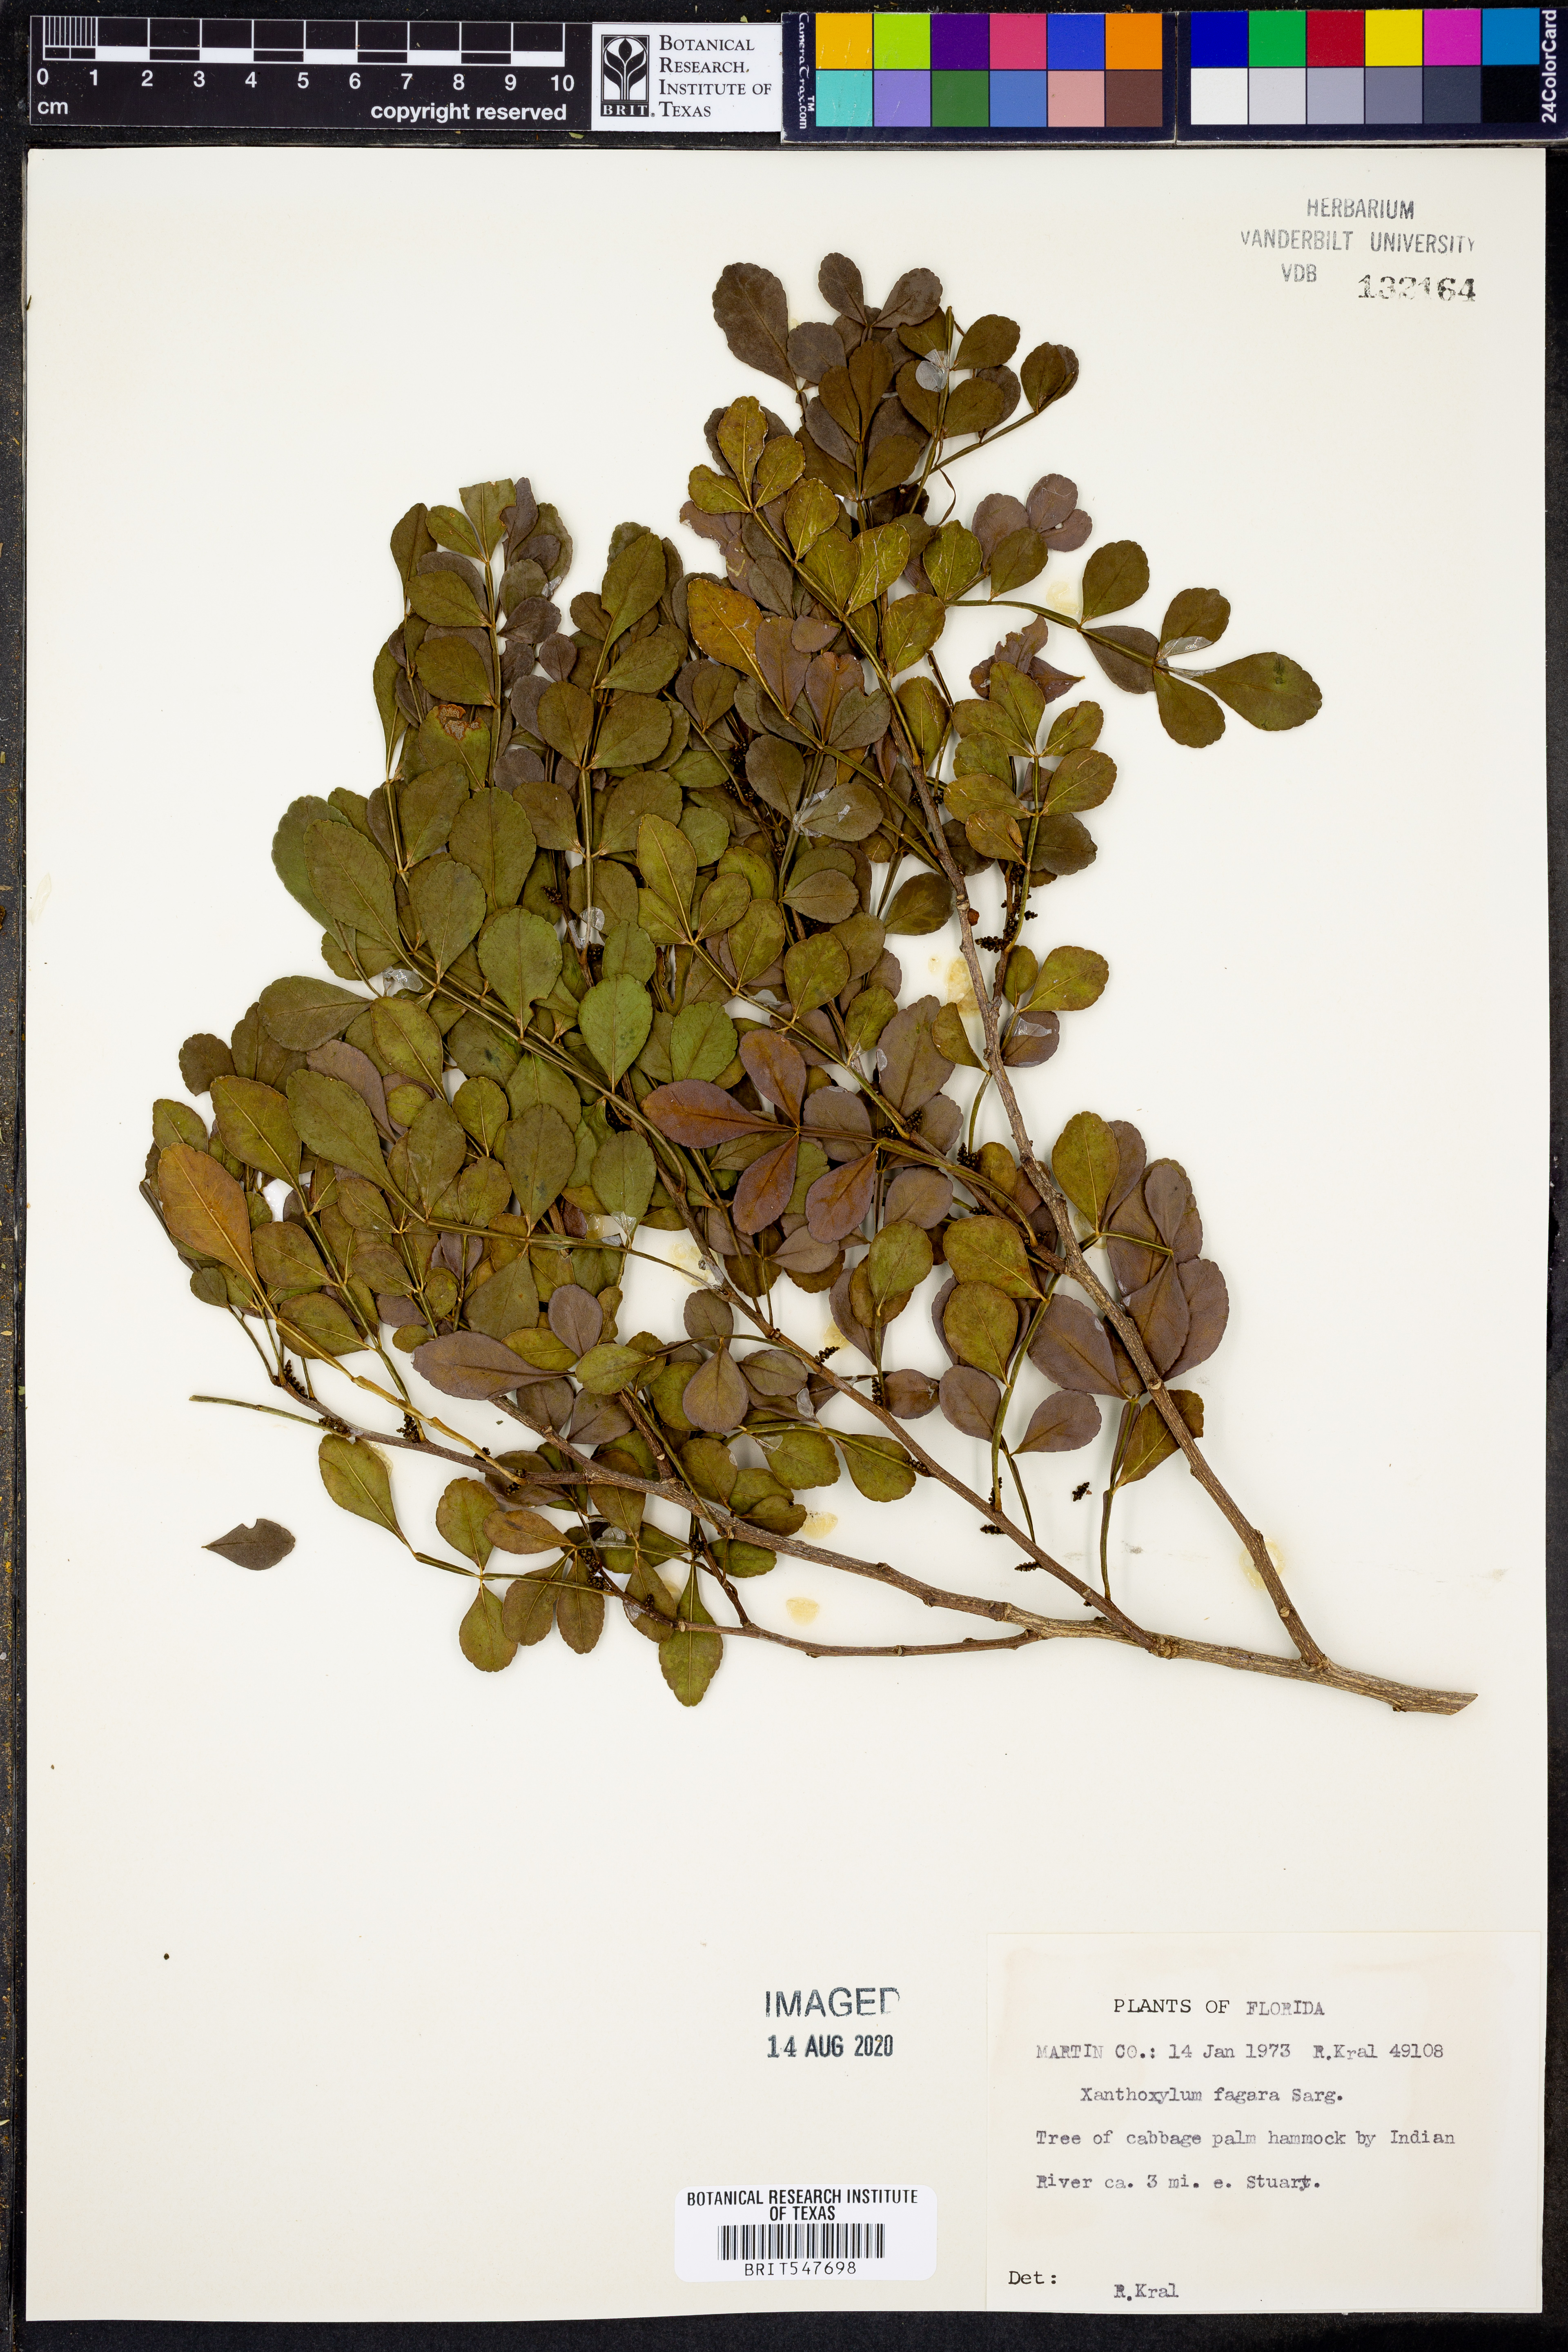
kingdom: Plantae
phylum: Tracheophyta
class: Magnoliopsida
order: Sapindales
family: Rutaceae
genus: Zanthoxylum
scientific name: Zanthoxylum fagara
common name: Lime prickly-ash
